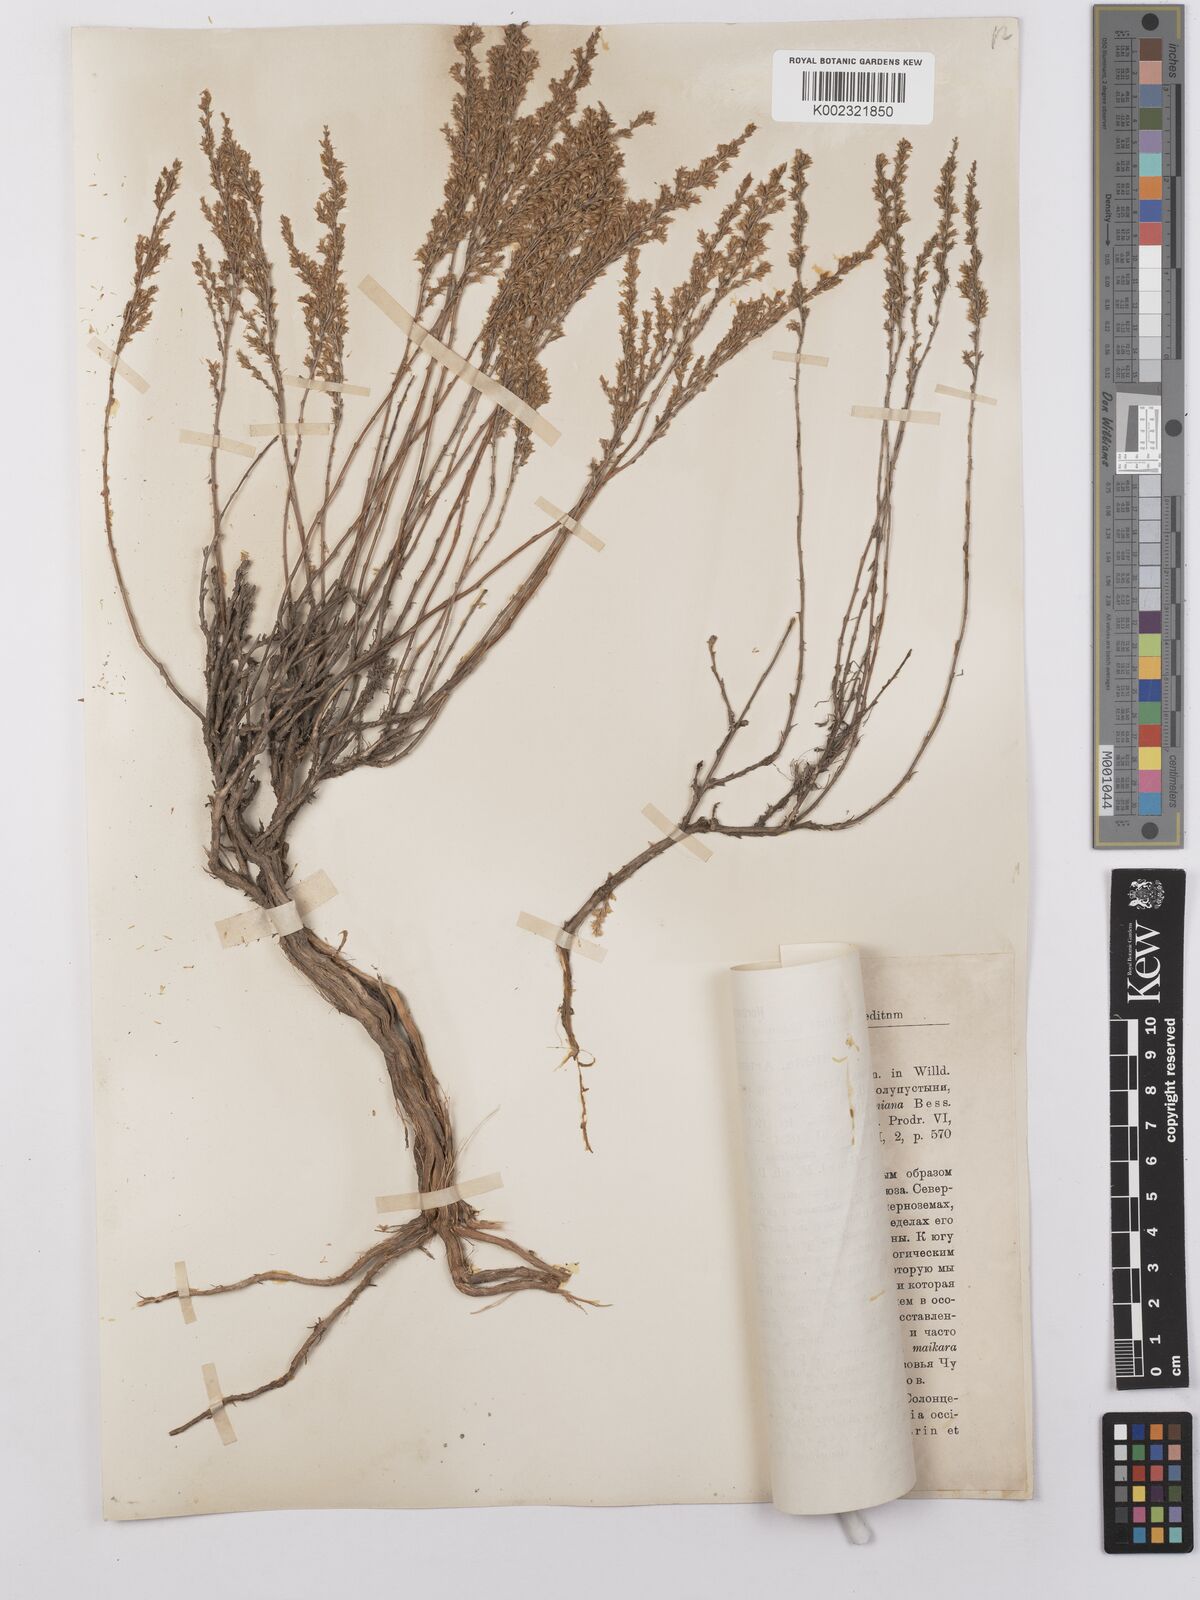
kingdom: Plantae
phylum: Tracheophyta
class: Magnoliopsida
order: Asterales
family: Asteraceae
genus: Artemisia
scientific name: Artemisia pauciflora
